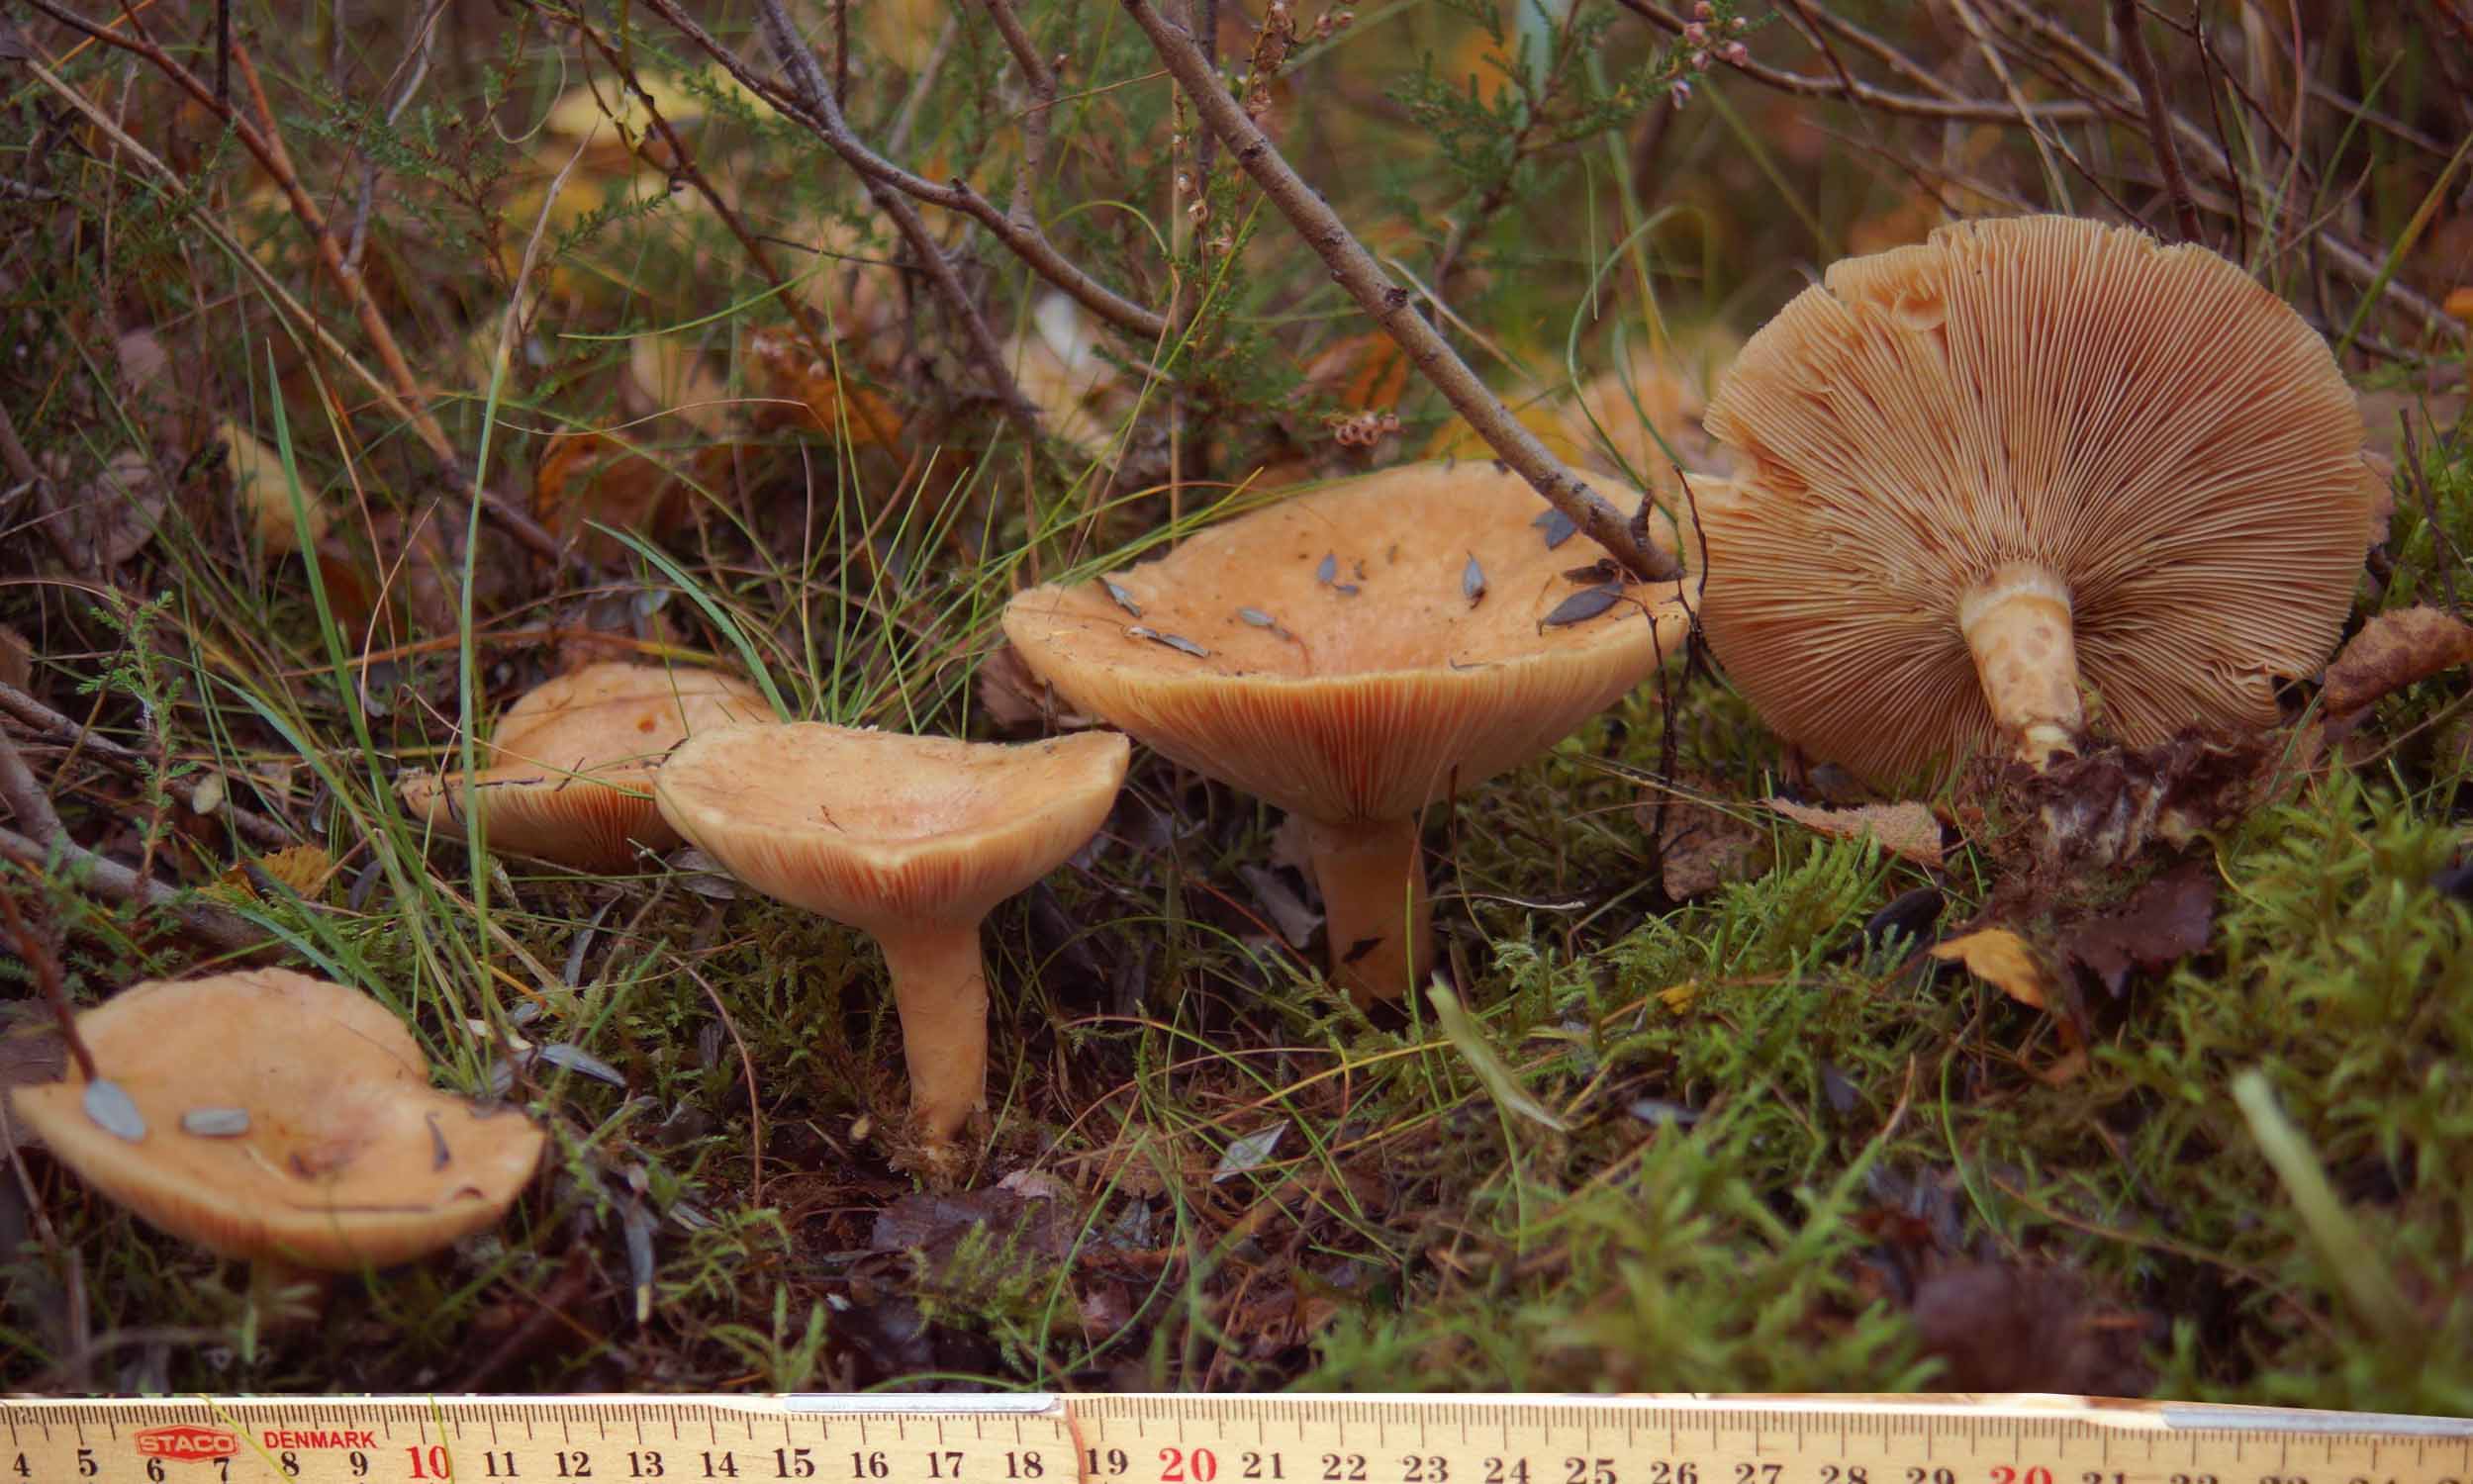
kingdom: Fungi
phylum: Basidiomycota
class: Agaricomycetes
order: Russulales
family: Russulaceae
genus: Lactarius
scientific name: Lactarius helvus
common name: mose-mælkehat
